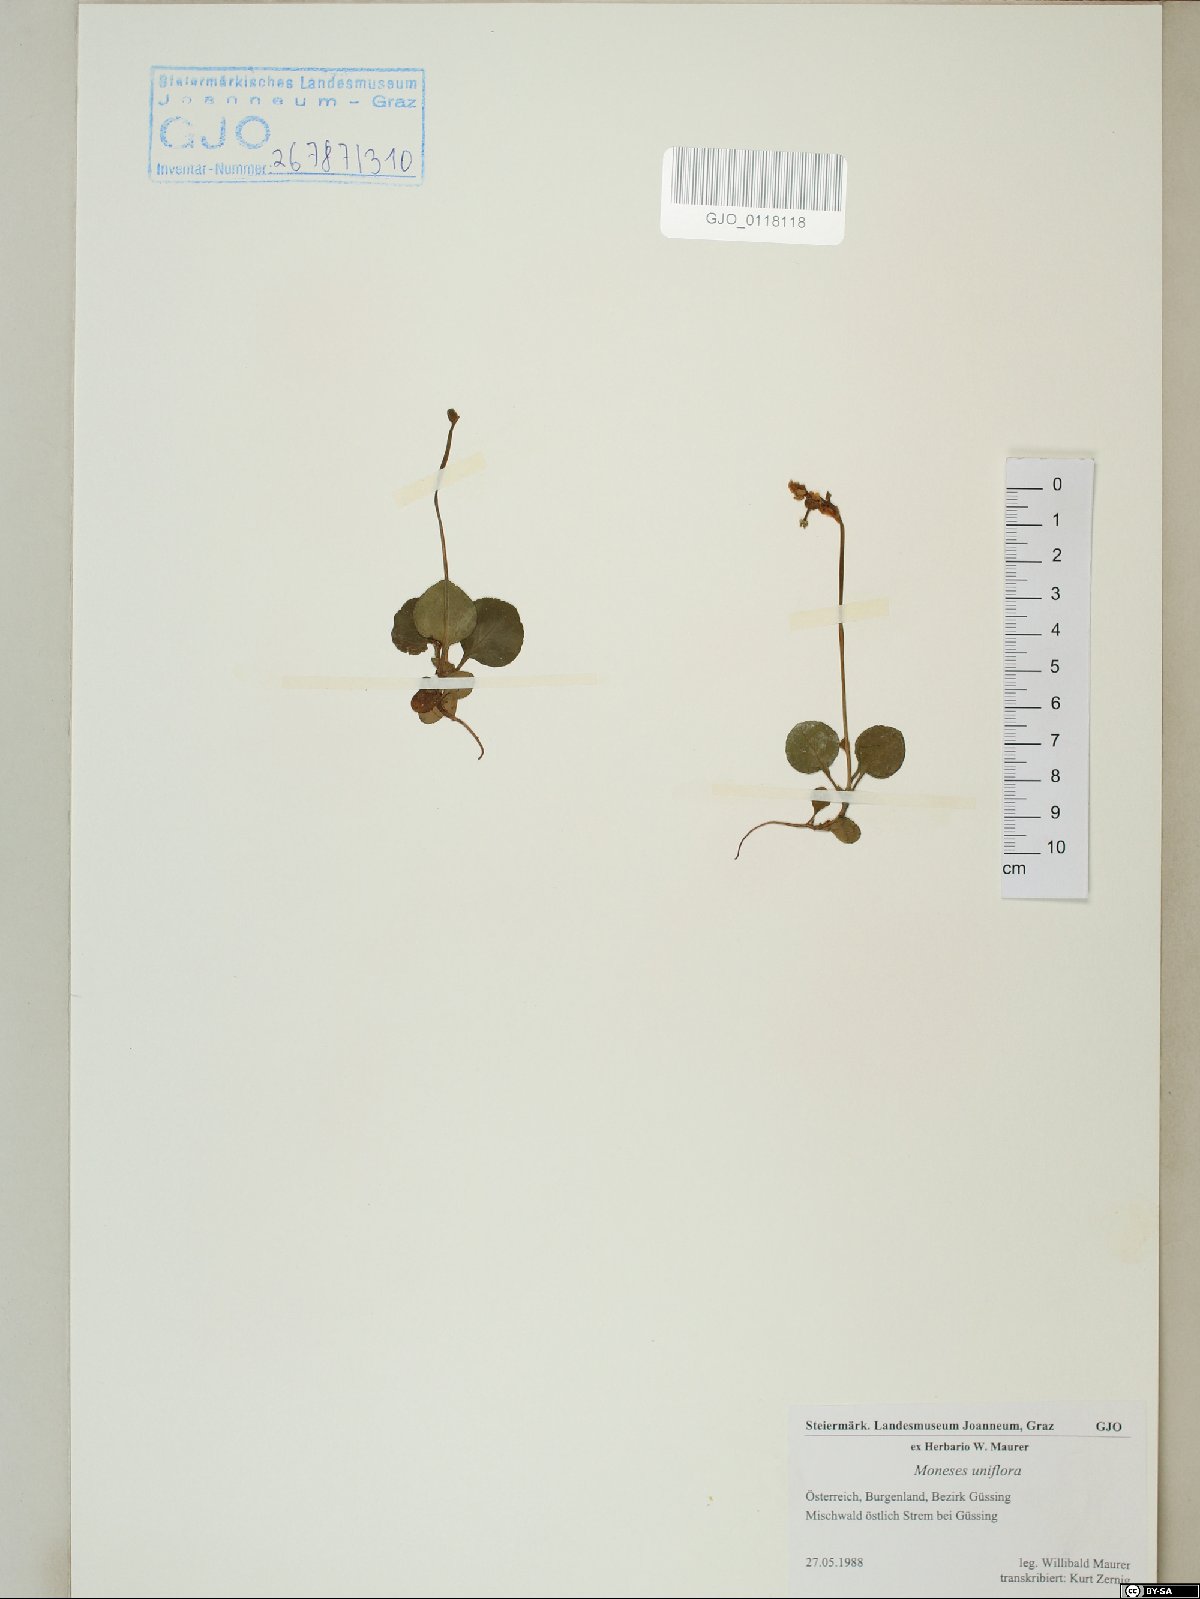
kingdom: Plantae
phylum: Tracheophyta
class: Magnoliopsida
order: Ericales
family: Ericaceae
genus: Moneses
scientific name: Moneses uniflora
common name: One-flowered wintergreen
